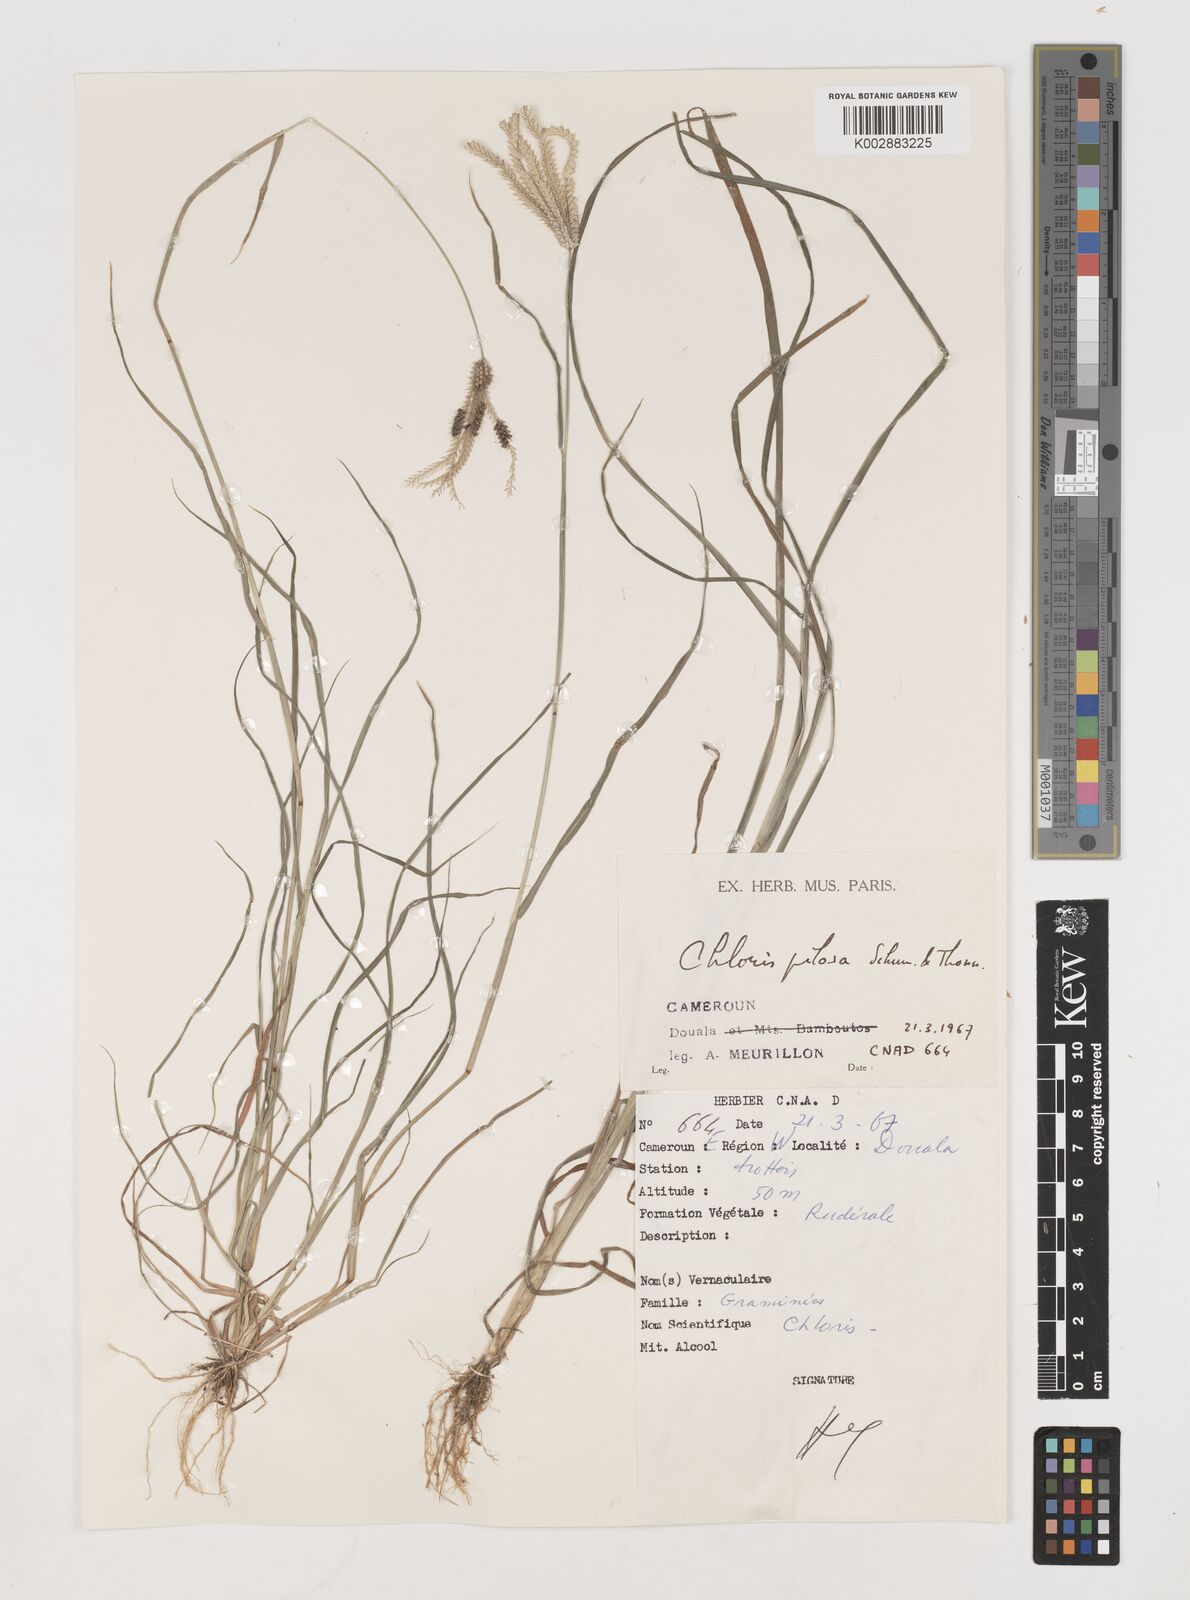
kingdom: Plantae
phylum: Tracheophyta
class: Liliopsida
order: Poales
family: Poaceae
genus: Chloris
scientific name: Chloris pilosa
